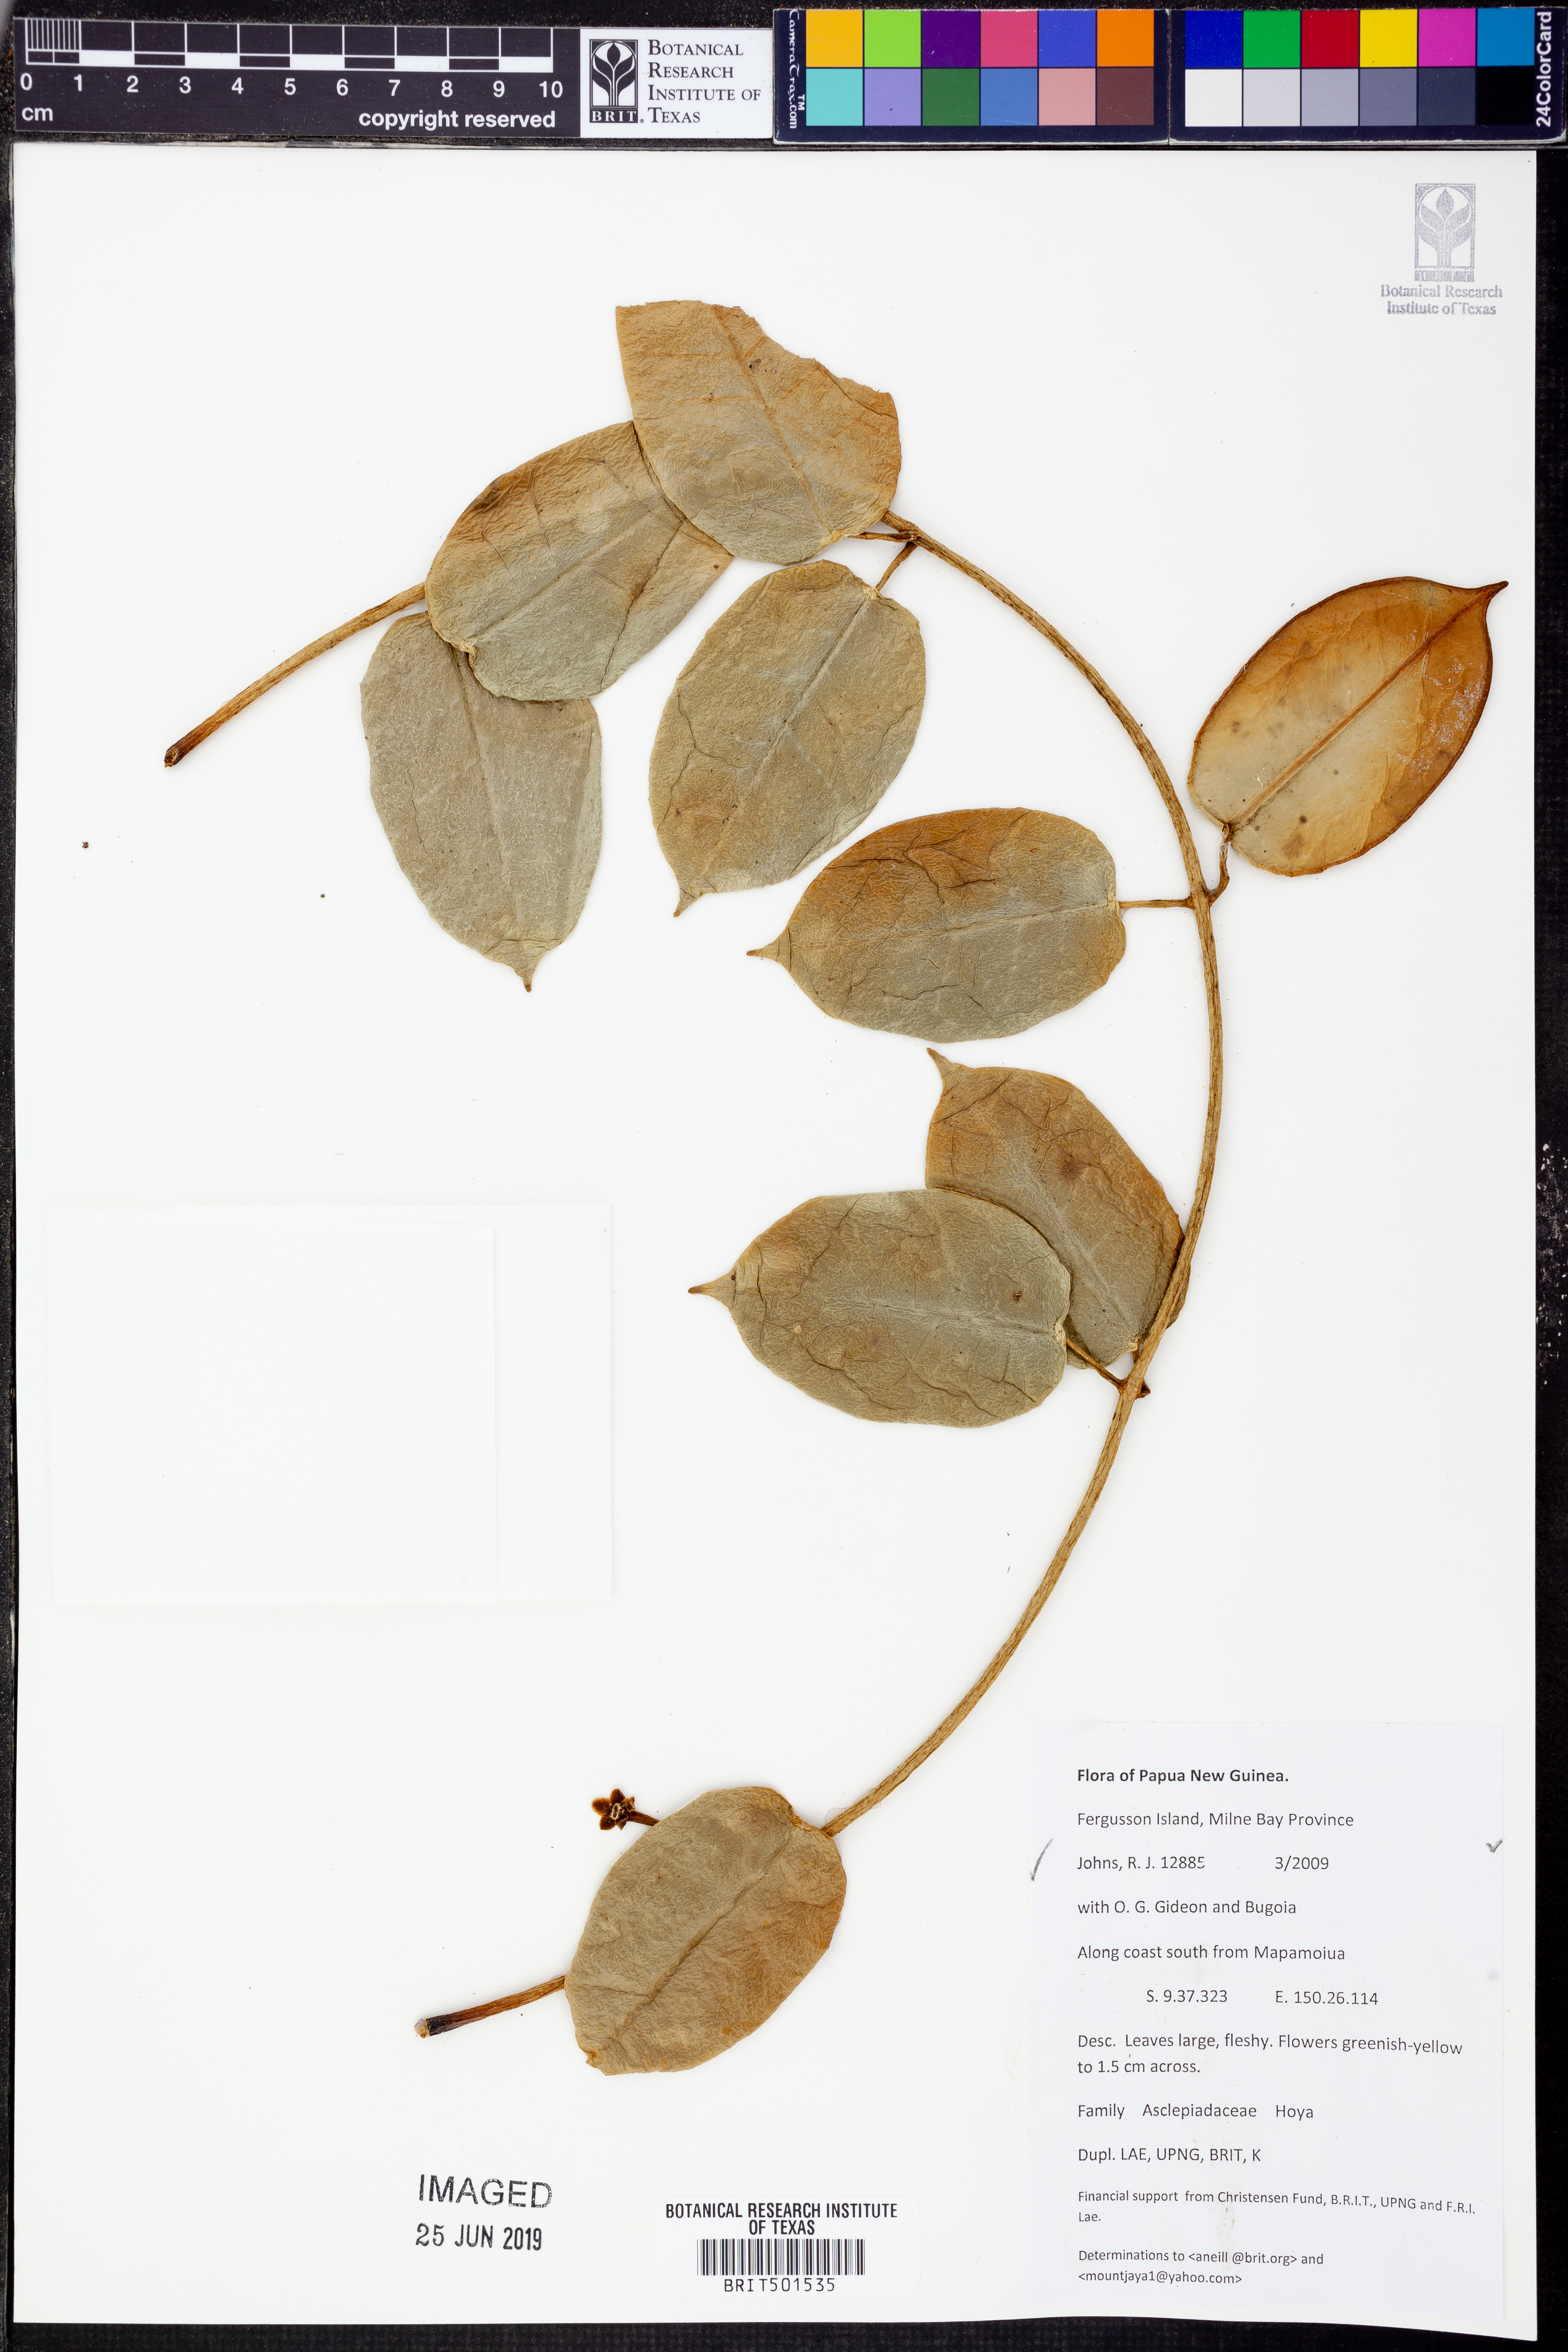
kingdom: Plantae
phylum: Tracheophyta
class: Magnoliopsida
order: Gentianales
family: Apocynaceae
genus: Hoya
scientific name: Hoya
